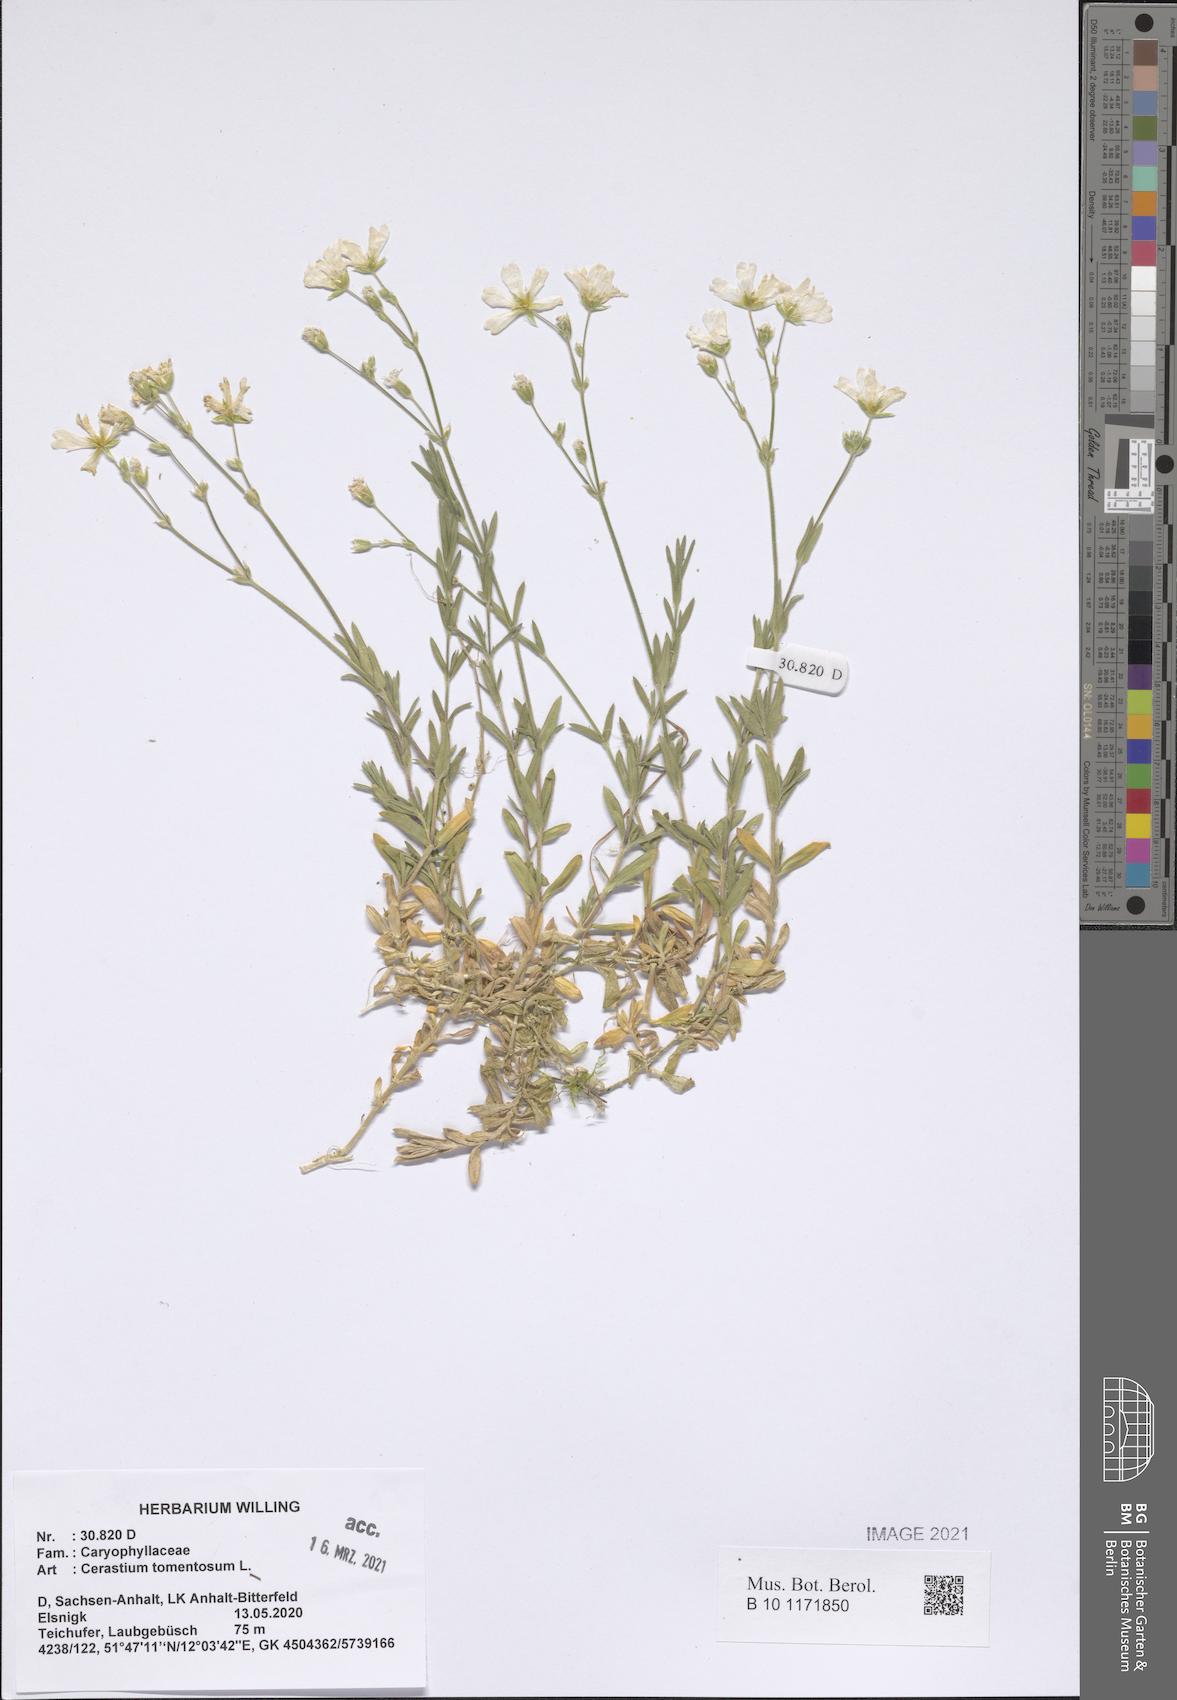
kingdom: Plantae
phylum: Tracheophyta
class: Magnoliopsida
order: Caryophyllales
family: Caryophyllaceae
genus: Cerastium
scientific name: Cerastium tomentosum
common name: Snow-in-summer
